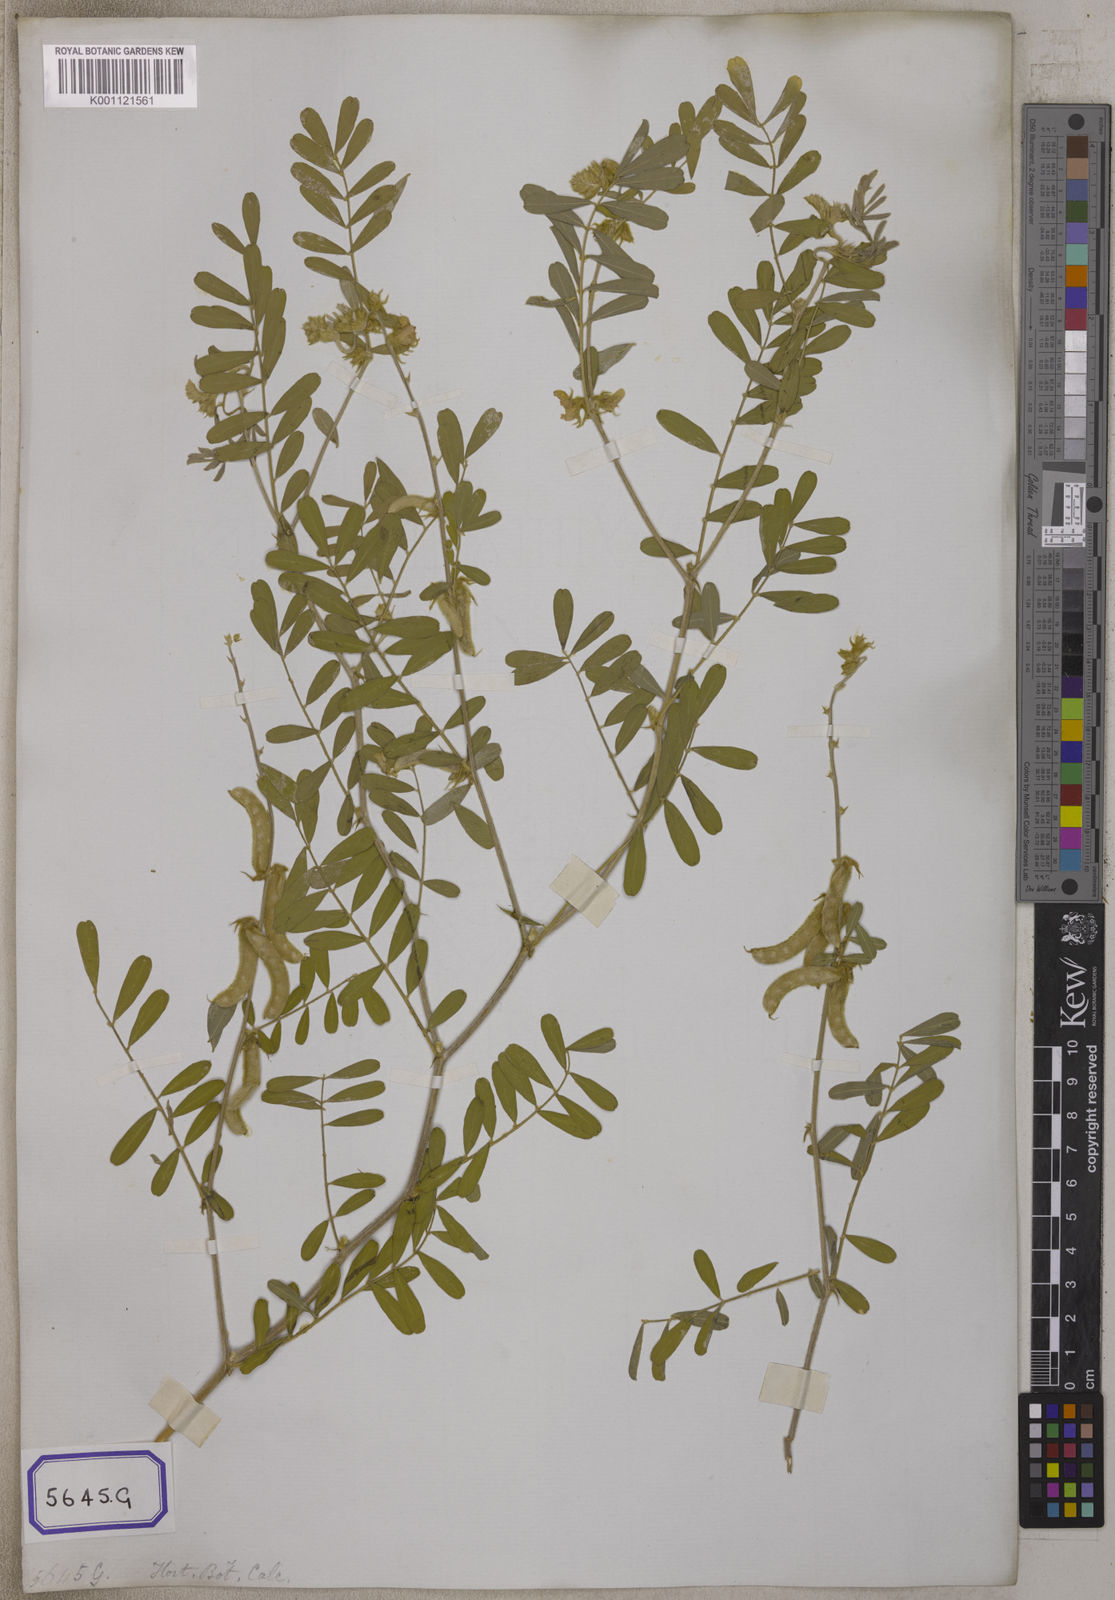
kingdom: Plantae
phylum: Tracheophyta
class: Magnoliopsida
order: Fabales
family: Fabaceae
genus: Tephrosia
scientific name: Tephrosia villosa
